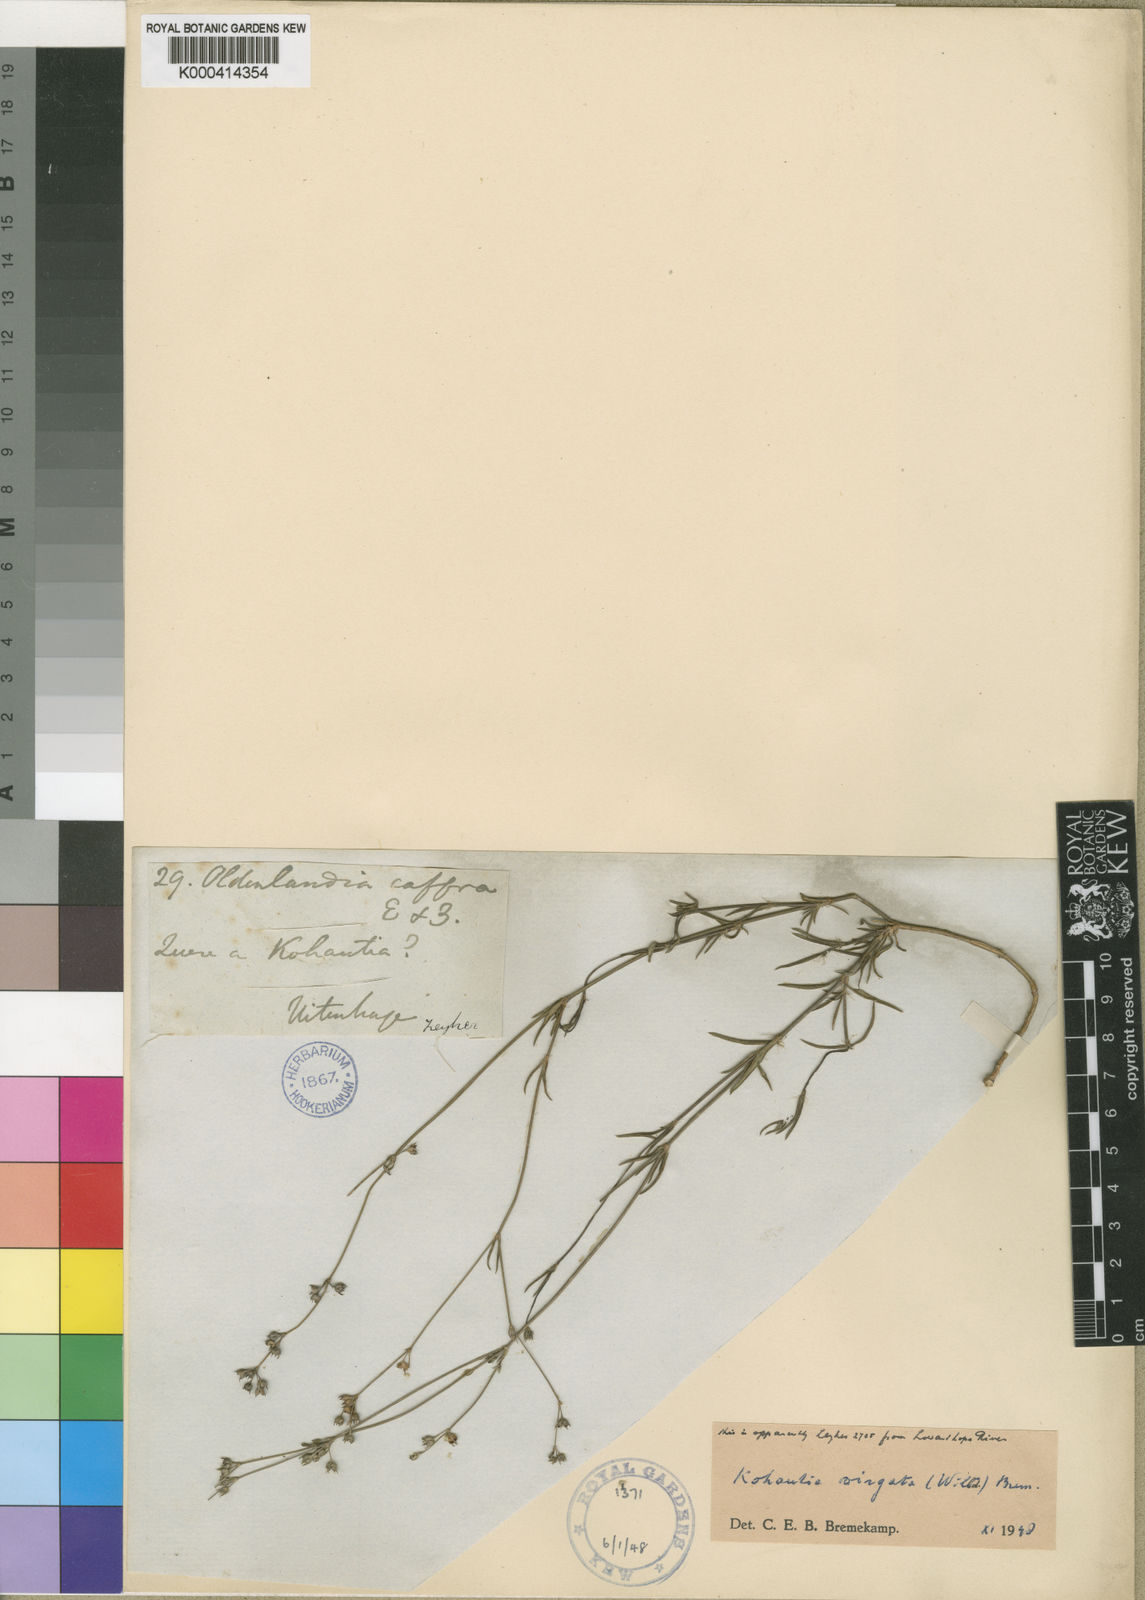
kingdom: Plantae
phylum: Tracheophyta
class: Magnoliopsida
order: Gentianales
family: Rubiaceae
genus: Cordylostigma
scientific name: Cordylostigma virgatum
